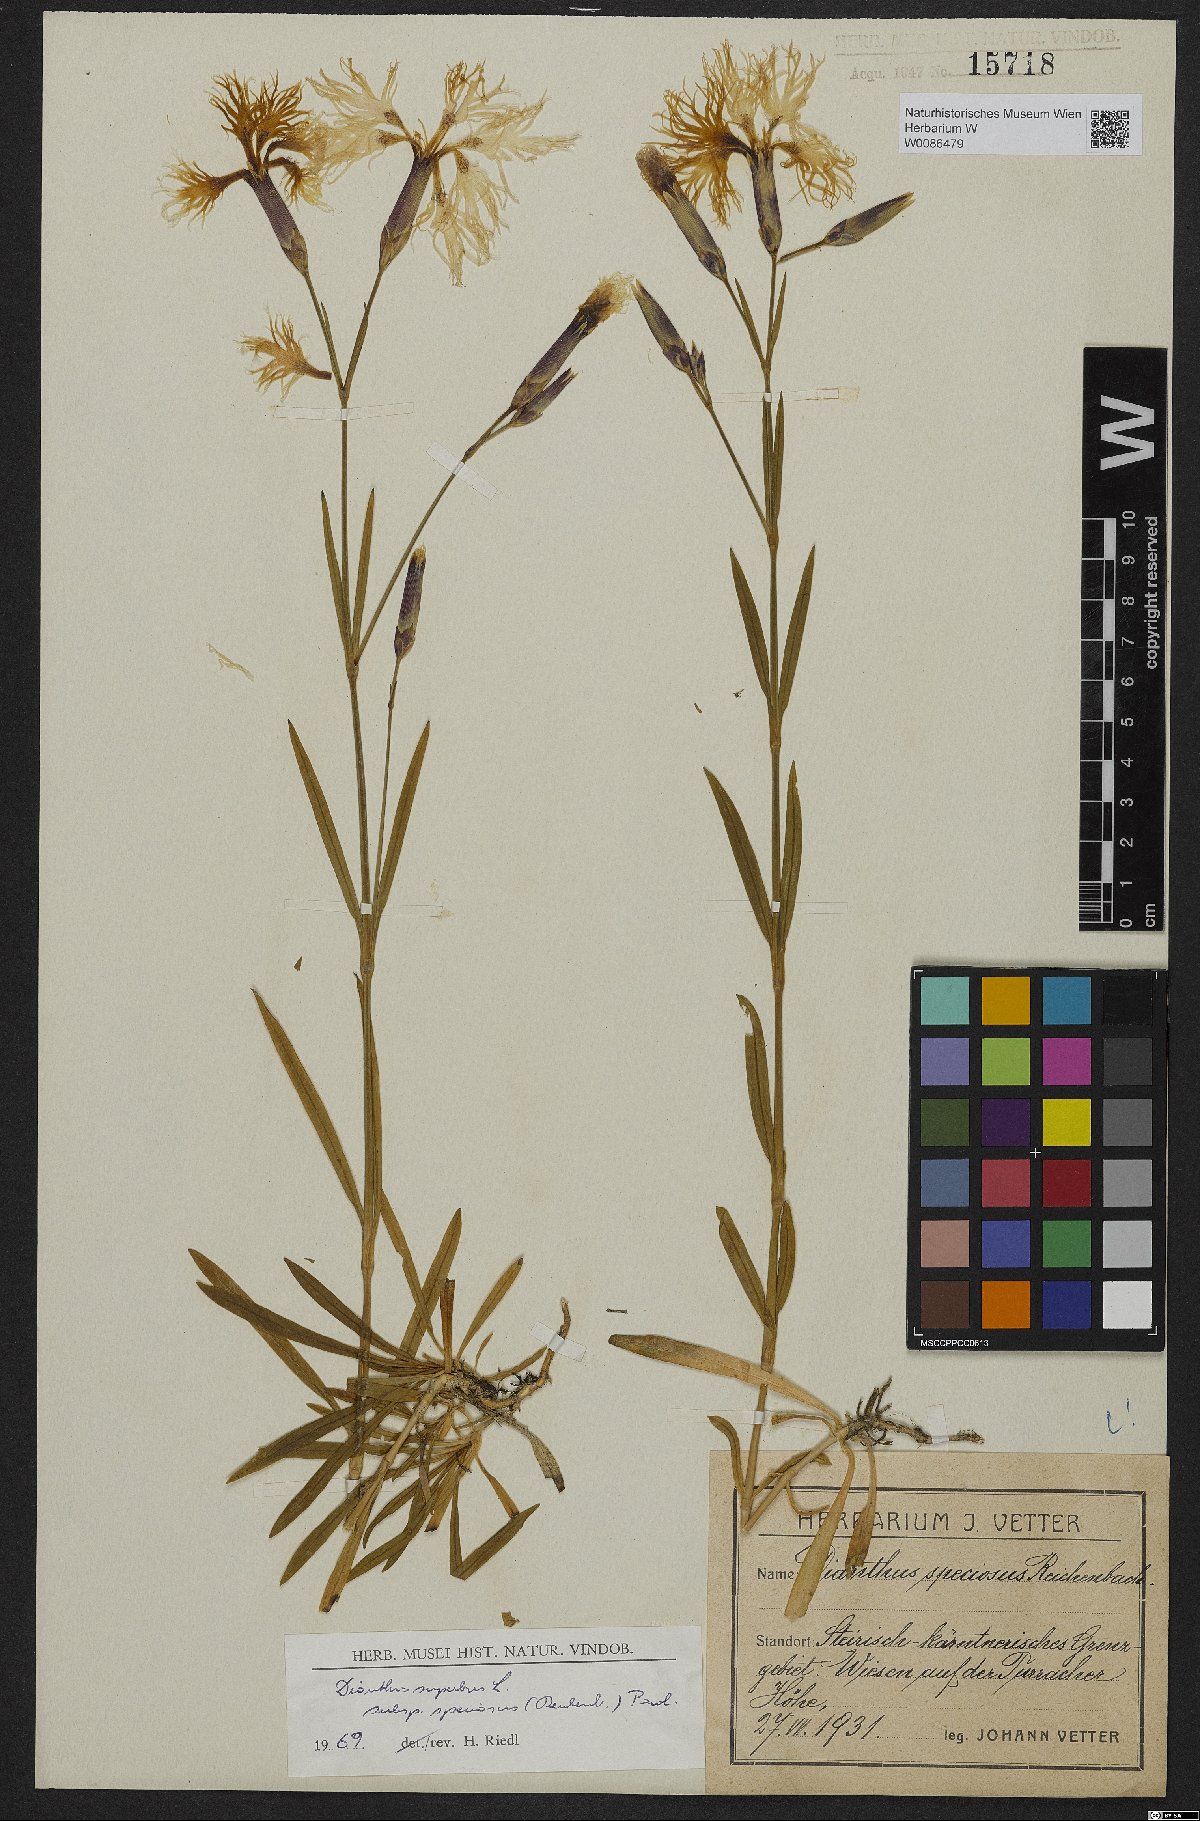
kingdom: Plantae
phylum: Tracheophyta
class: Magnoliopsida
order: Caryophyllales
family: Caryophyllaceae
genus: Dianthus
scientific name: Dianthus superbus
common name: Fringed pink
